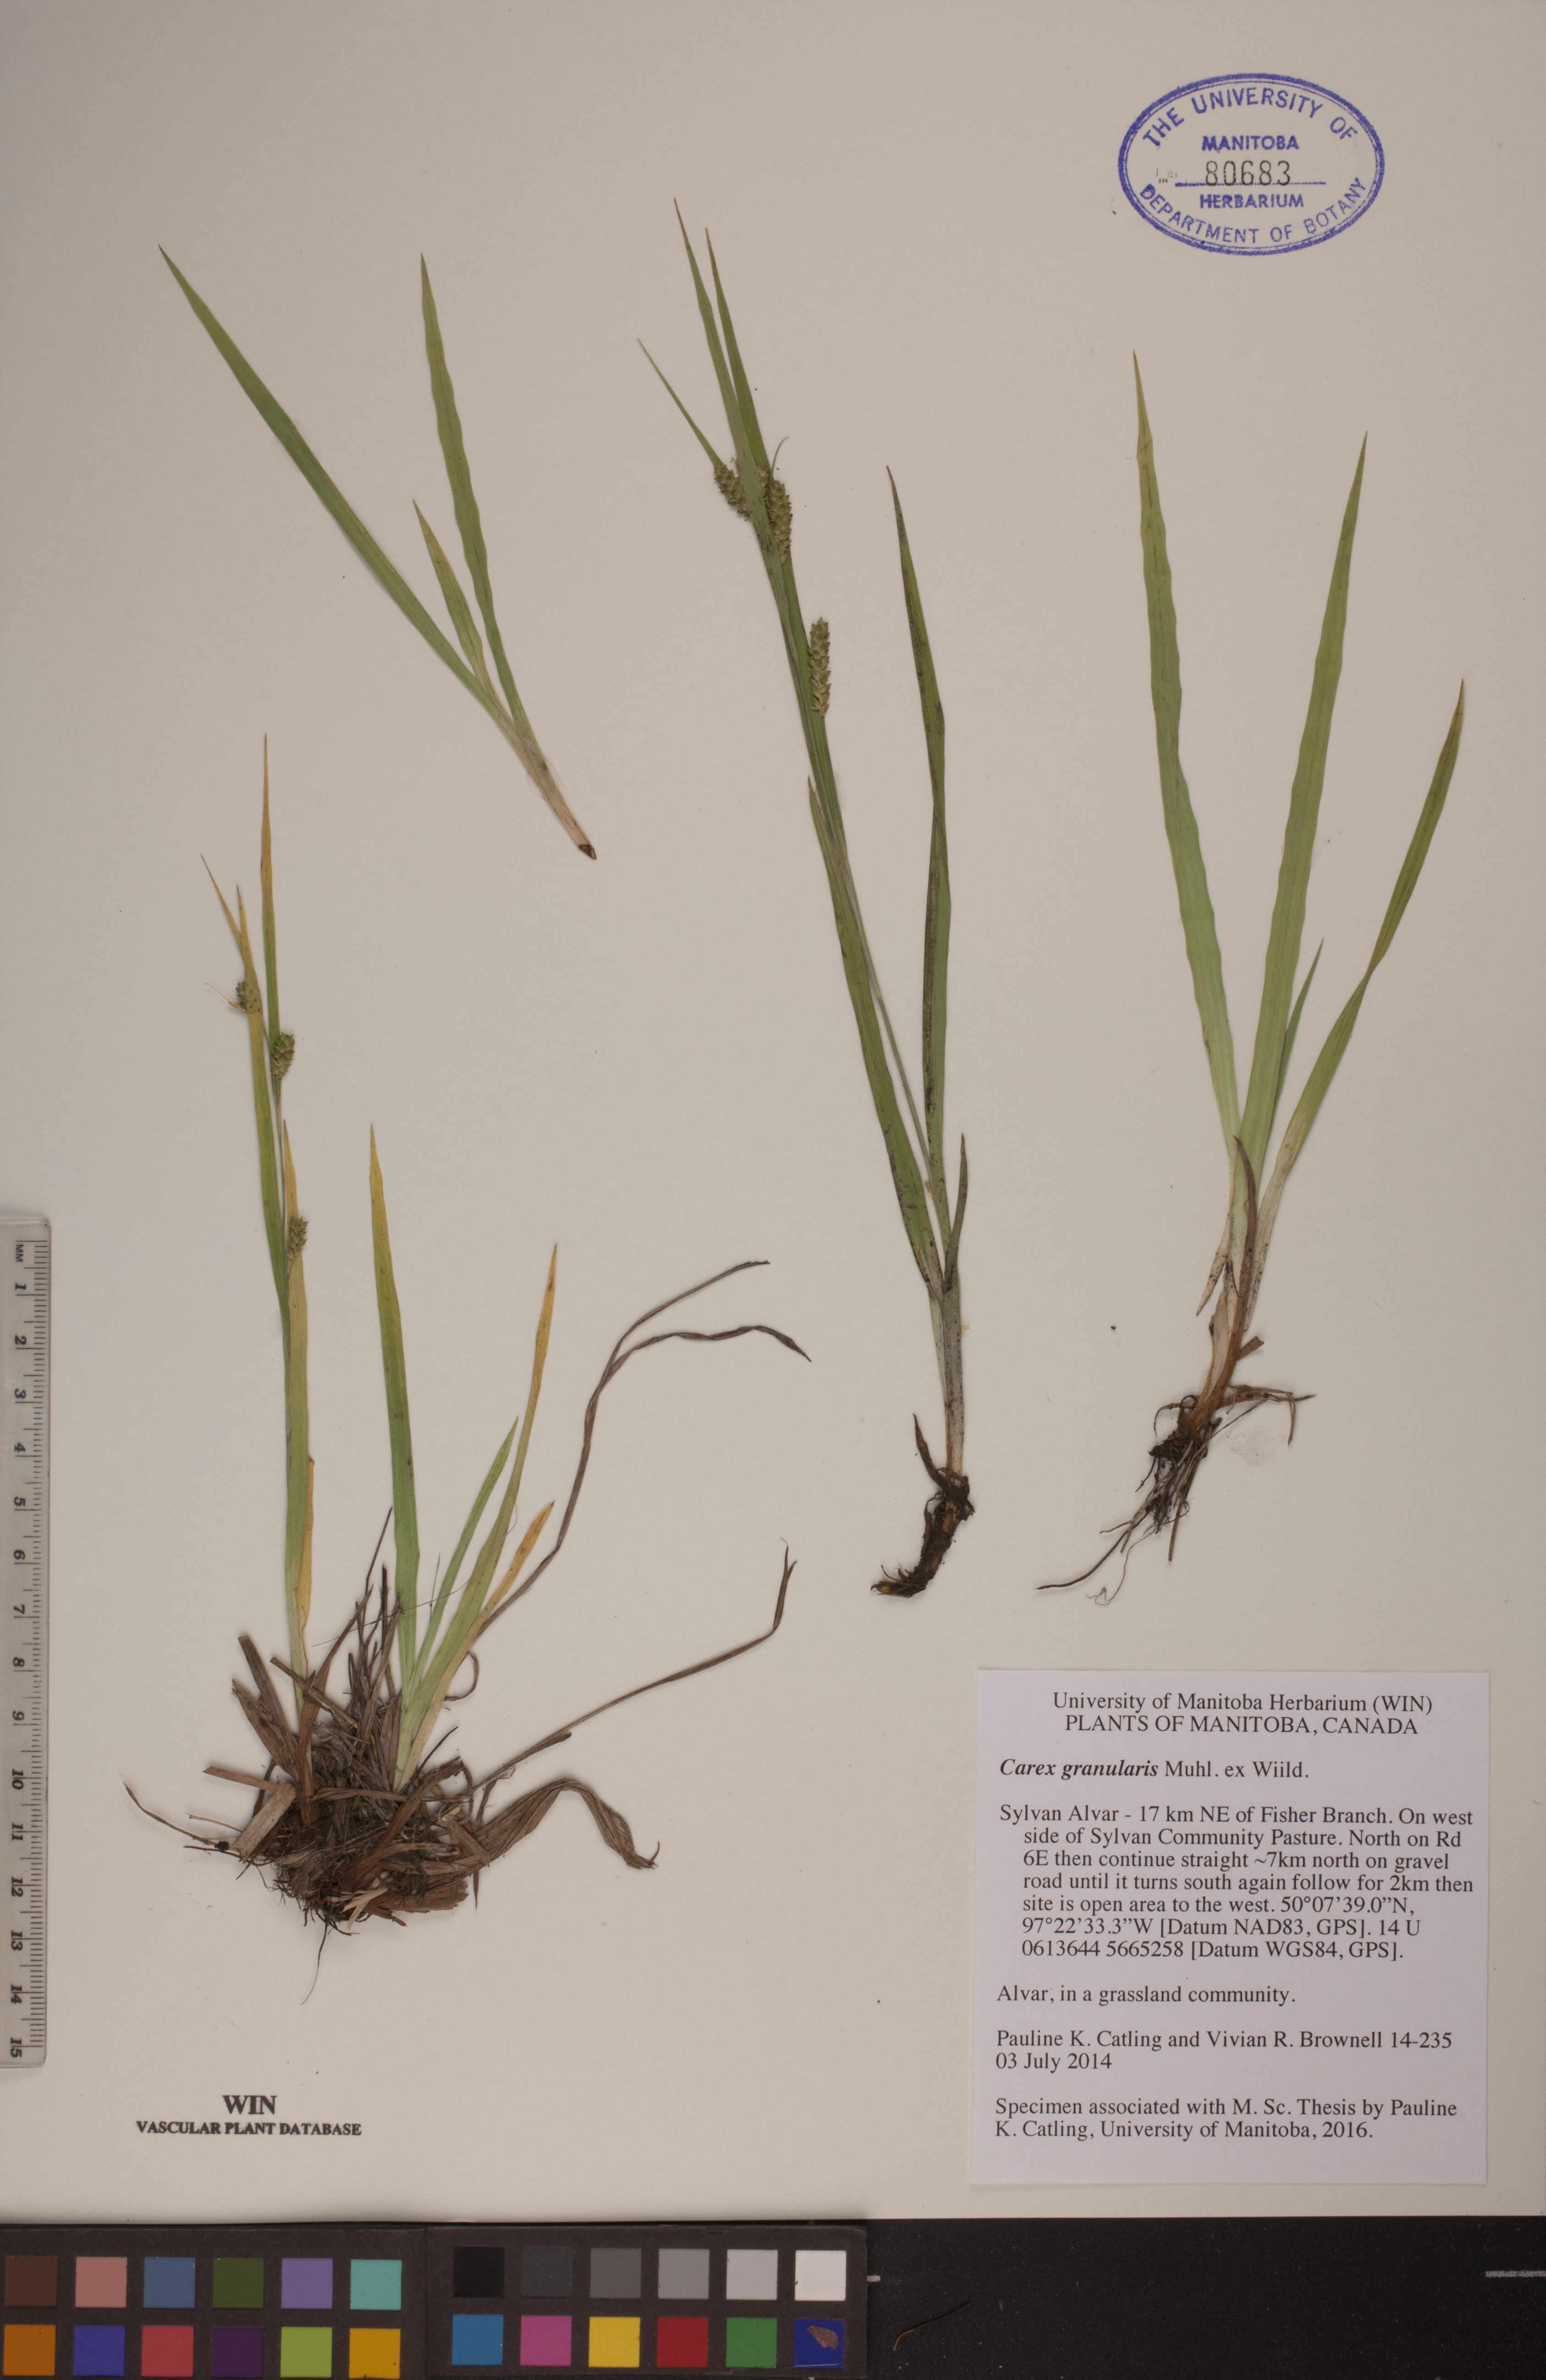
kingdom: Plantae
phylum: Tracheophyta
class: Liliopsida
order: Poales
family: Cyperaceae
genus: Carex
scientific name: Carex granularis
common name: Granular sedge
